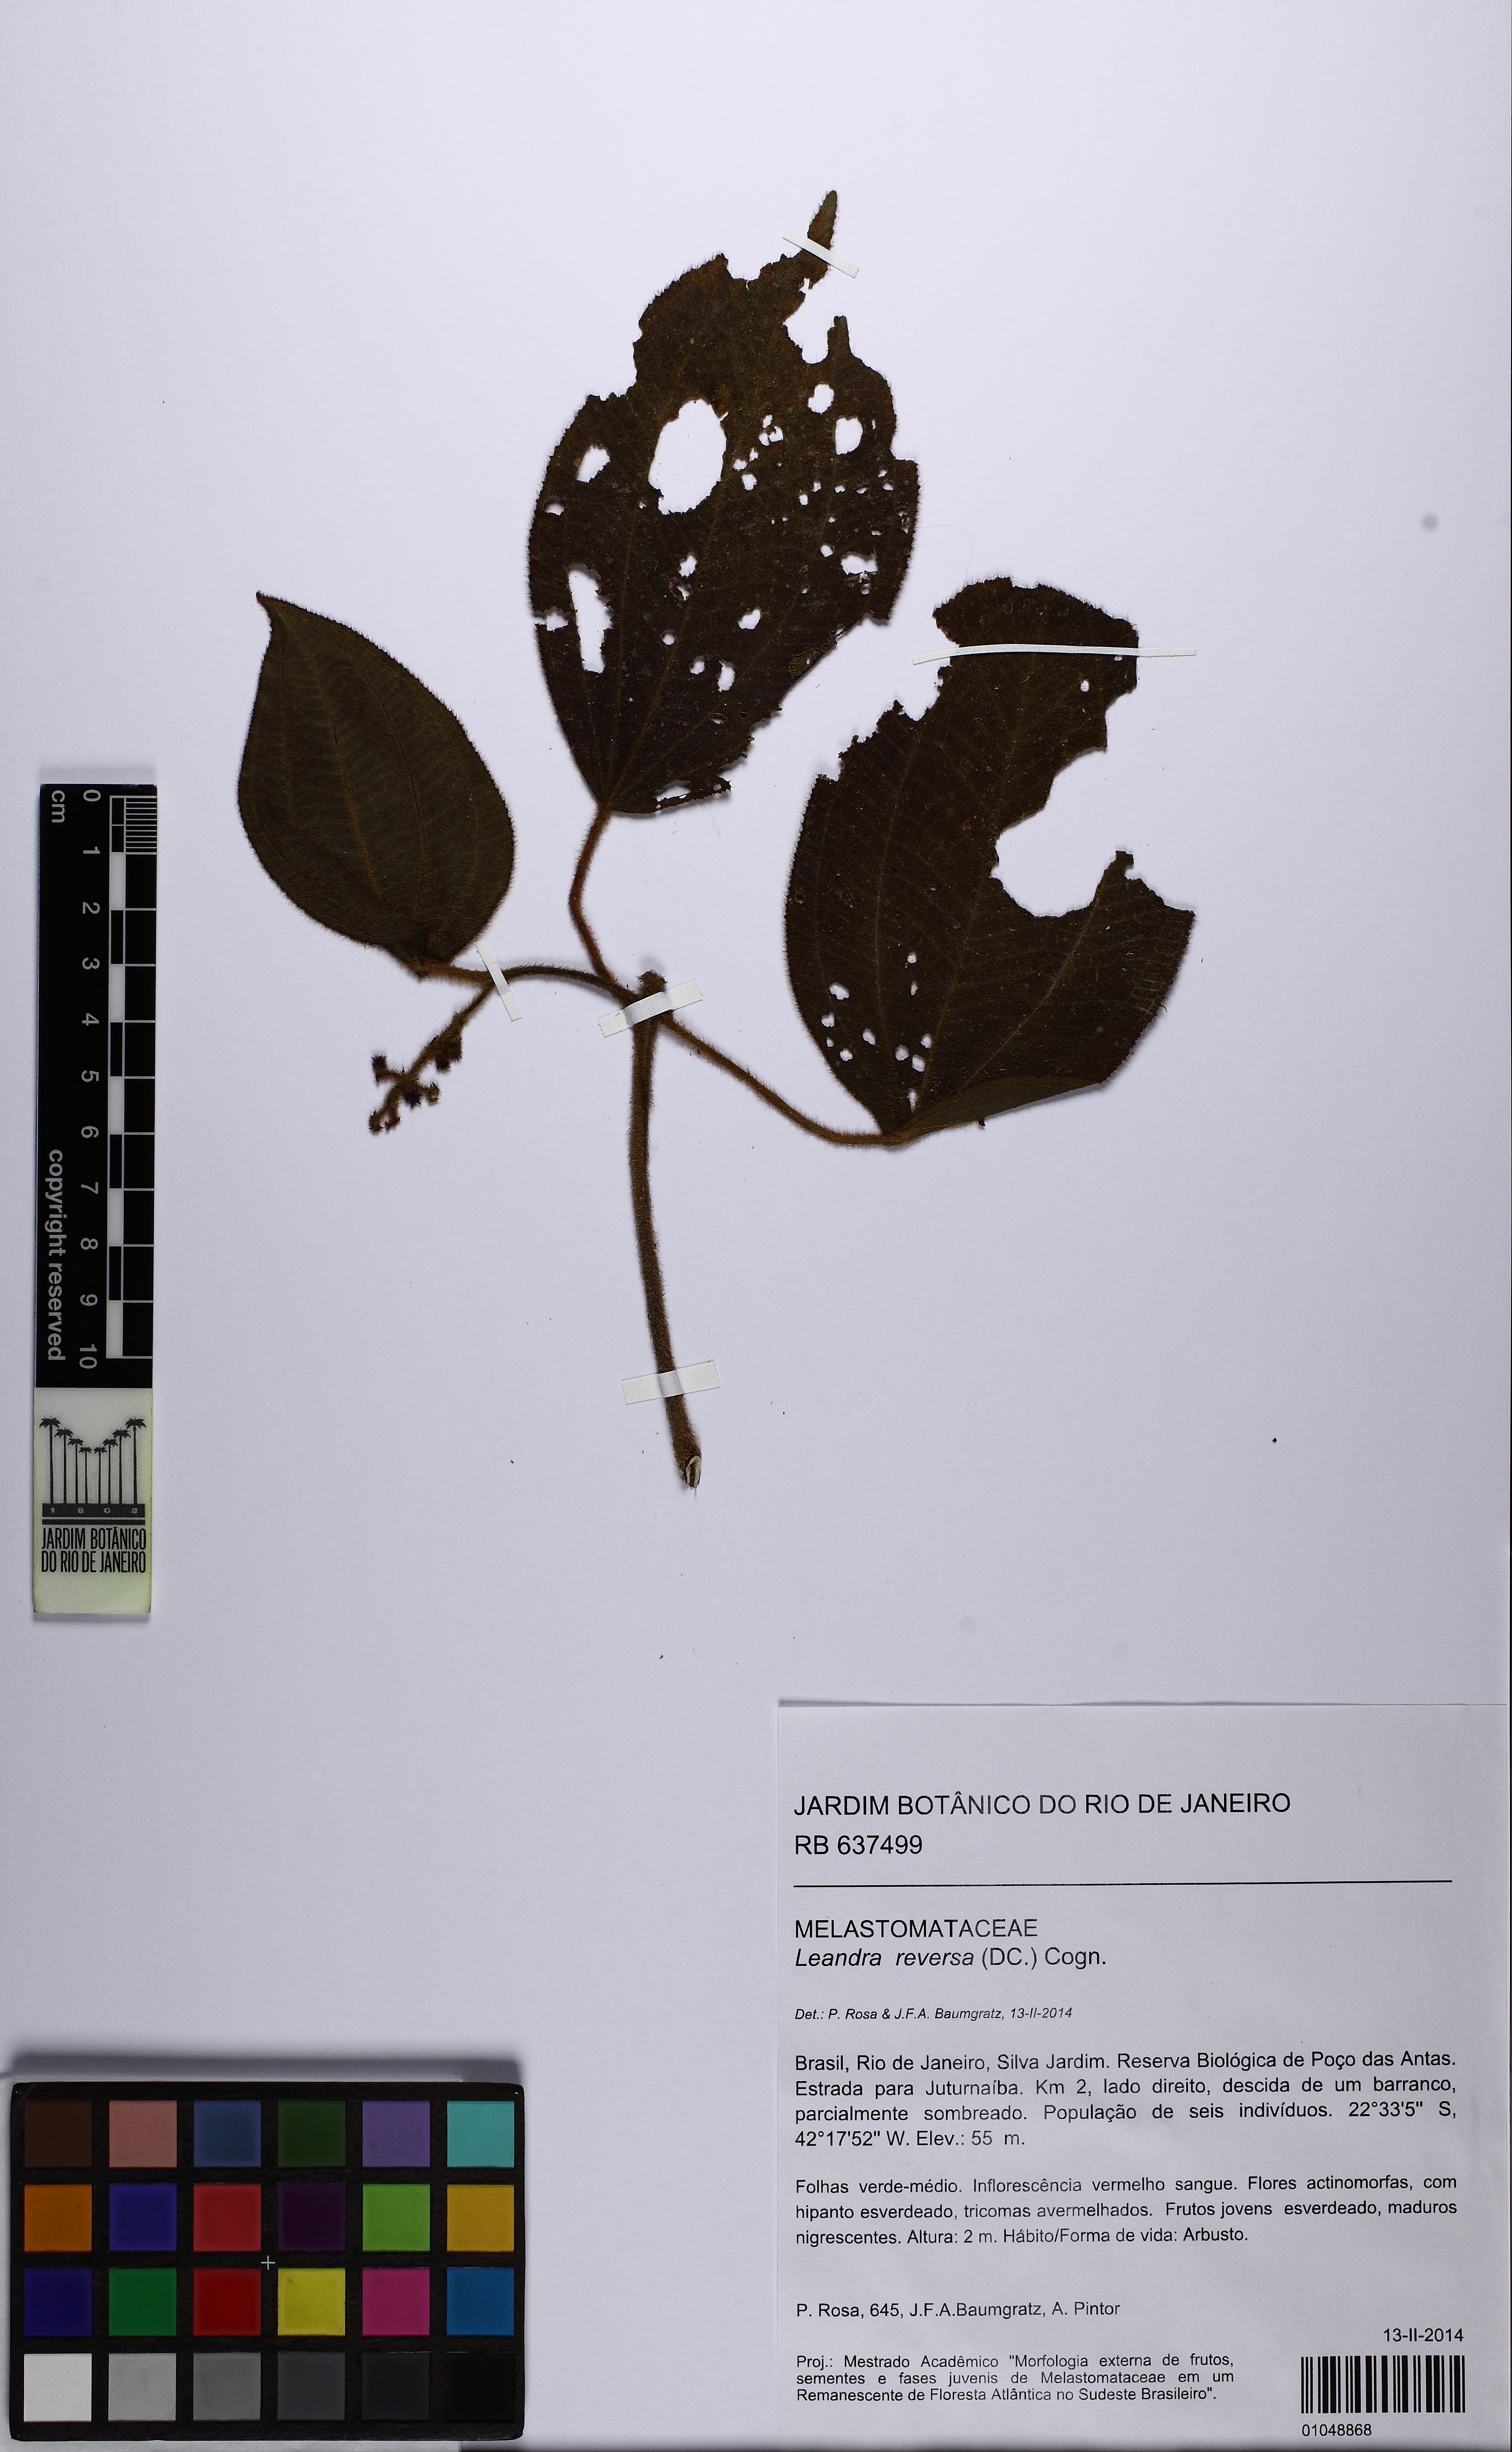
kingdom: Plantae
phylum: Tracheophyta
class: Magnoliopsida
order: Myrtales
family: Melastomataceae
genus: Miconia
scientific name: Miconia reversa
